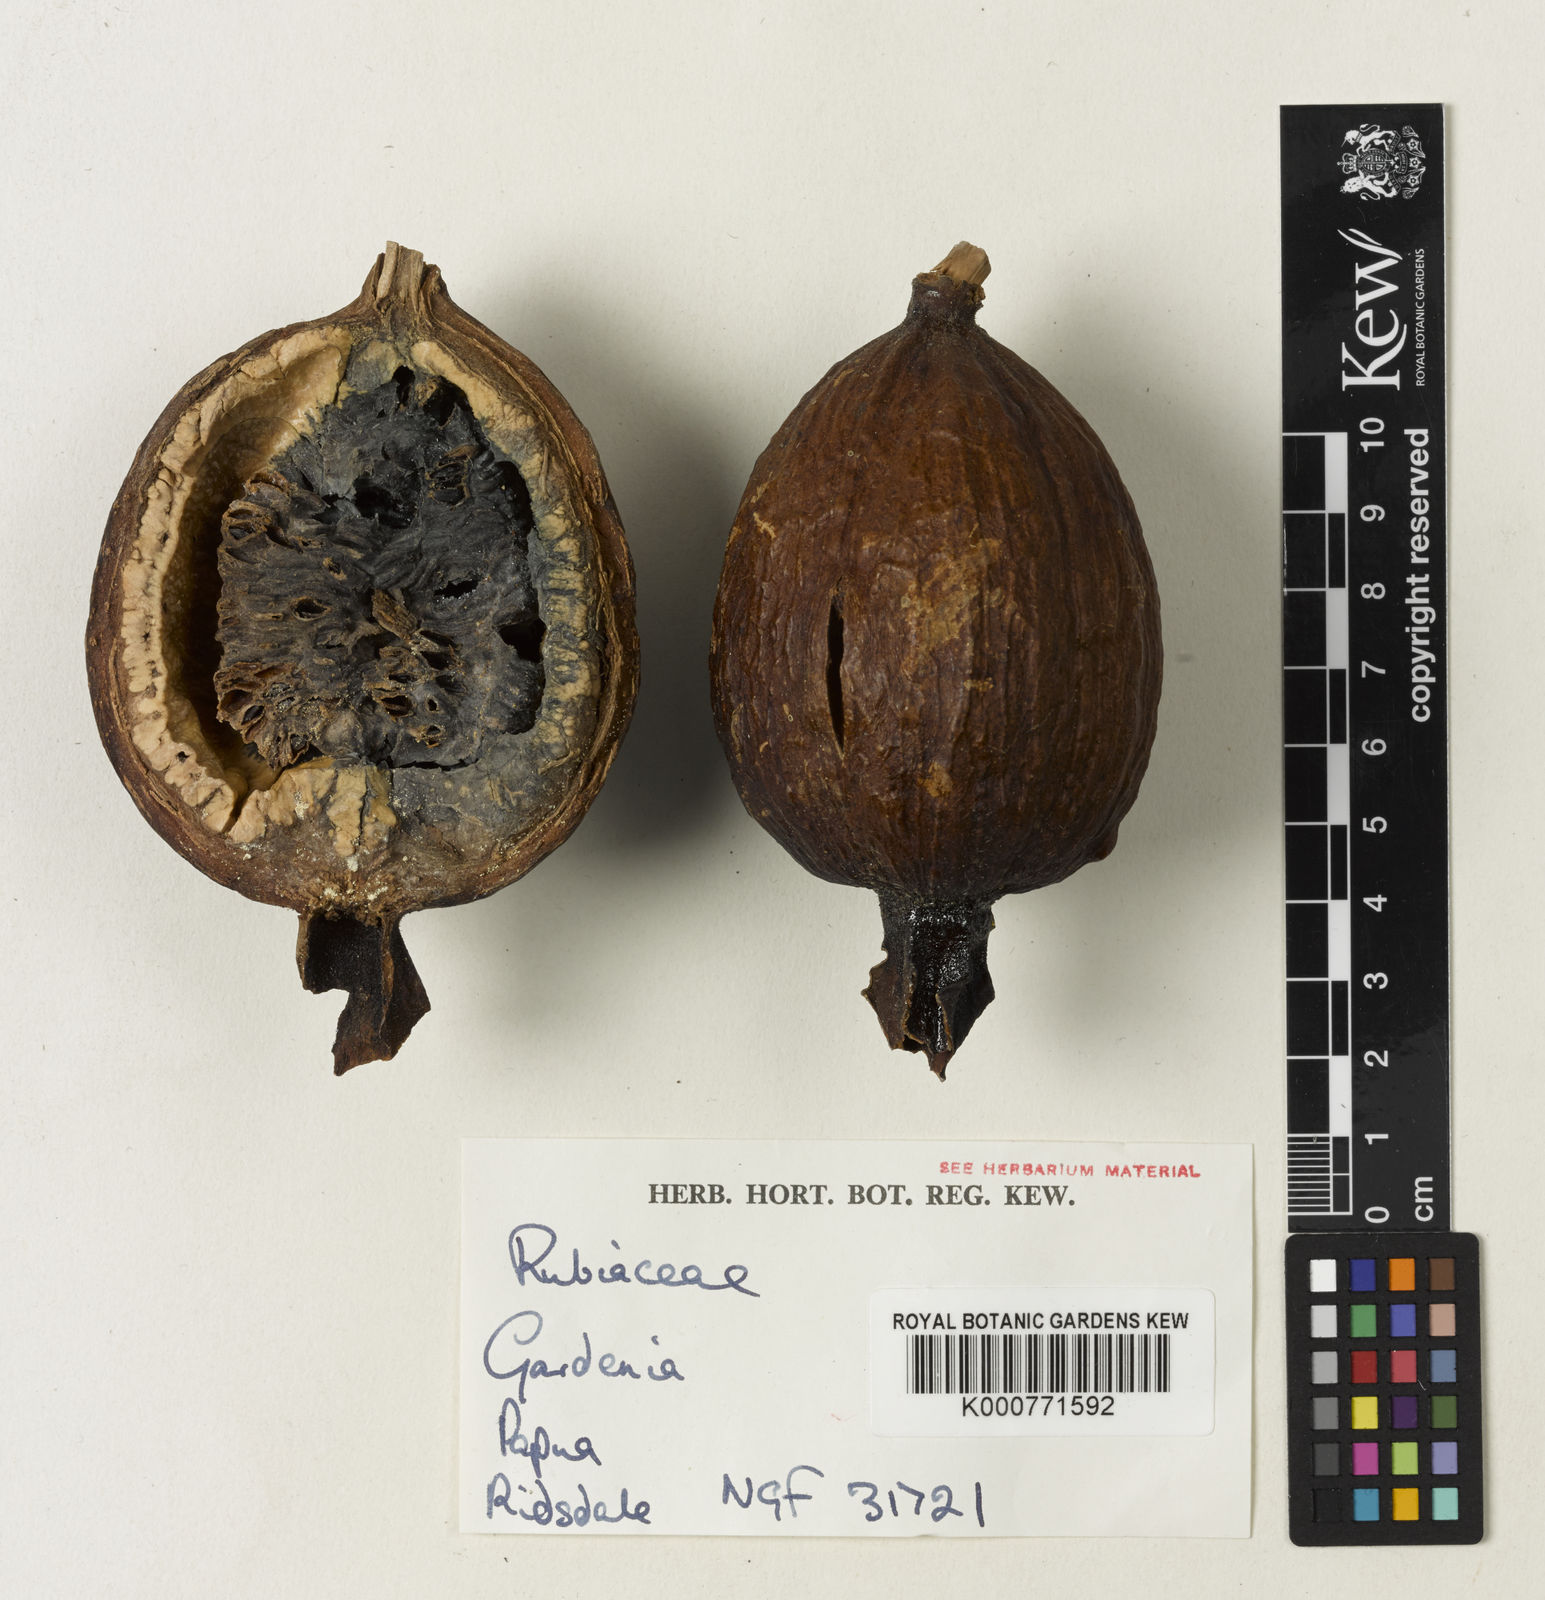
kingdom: Plantae
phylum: Tracheophyta
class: Magnoliopsida
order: Gentianales
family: Rubiaceae
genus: Gardenia
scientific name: Gardenia
